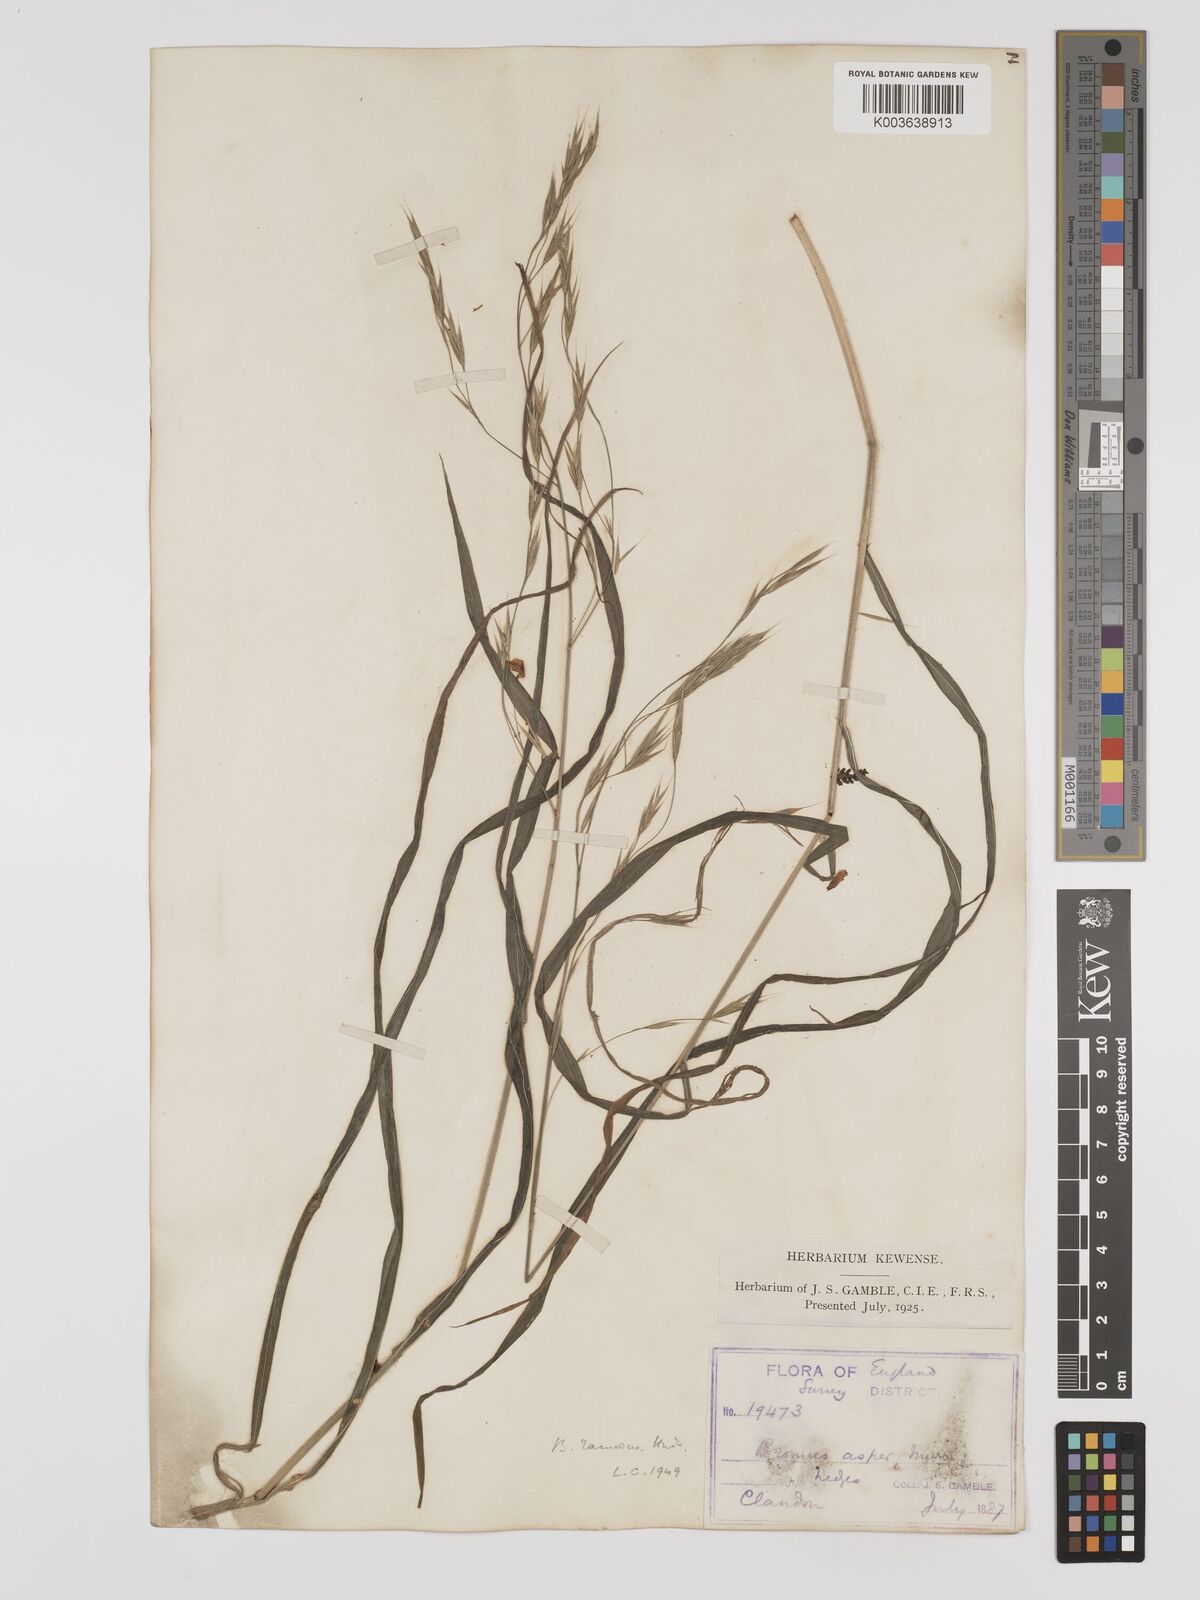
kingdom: Plantae
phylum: Tracheophyta
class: Liliopsida
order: Poales
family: Poaceae
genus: Bromus
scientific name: Bromus ramosus
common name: Hairy brome
